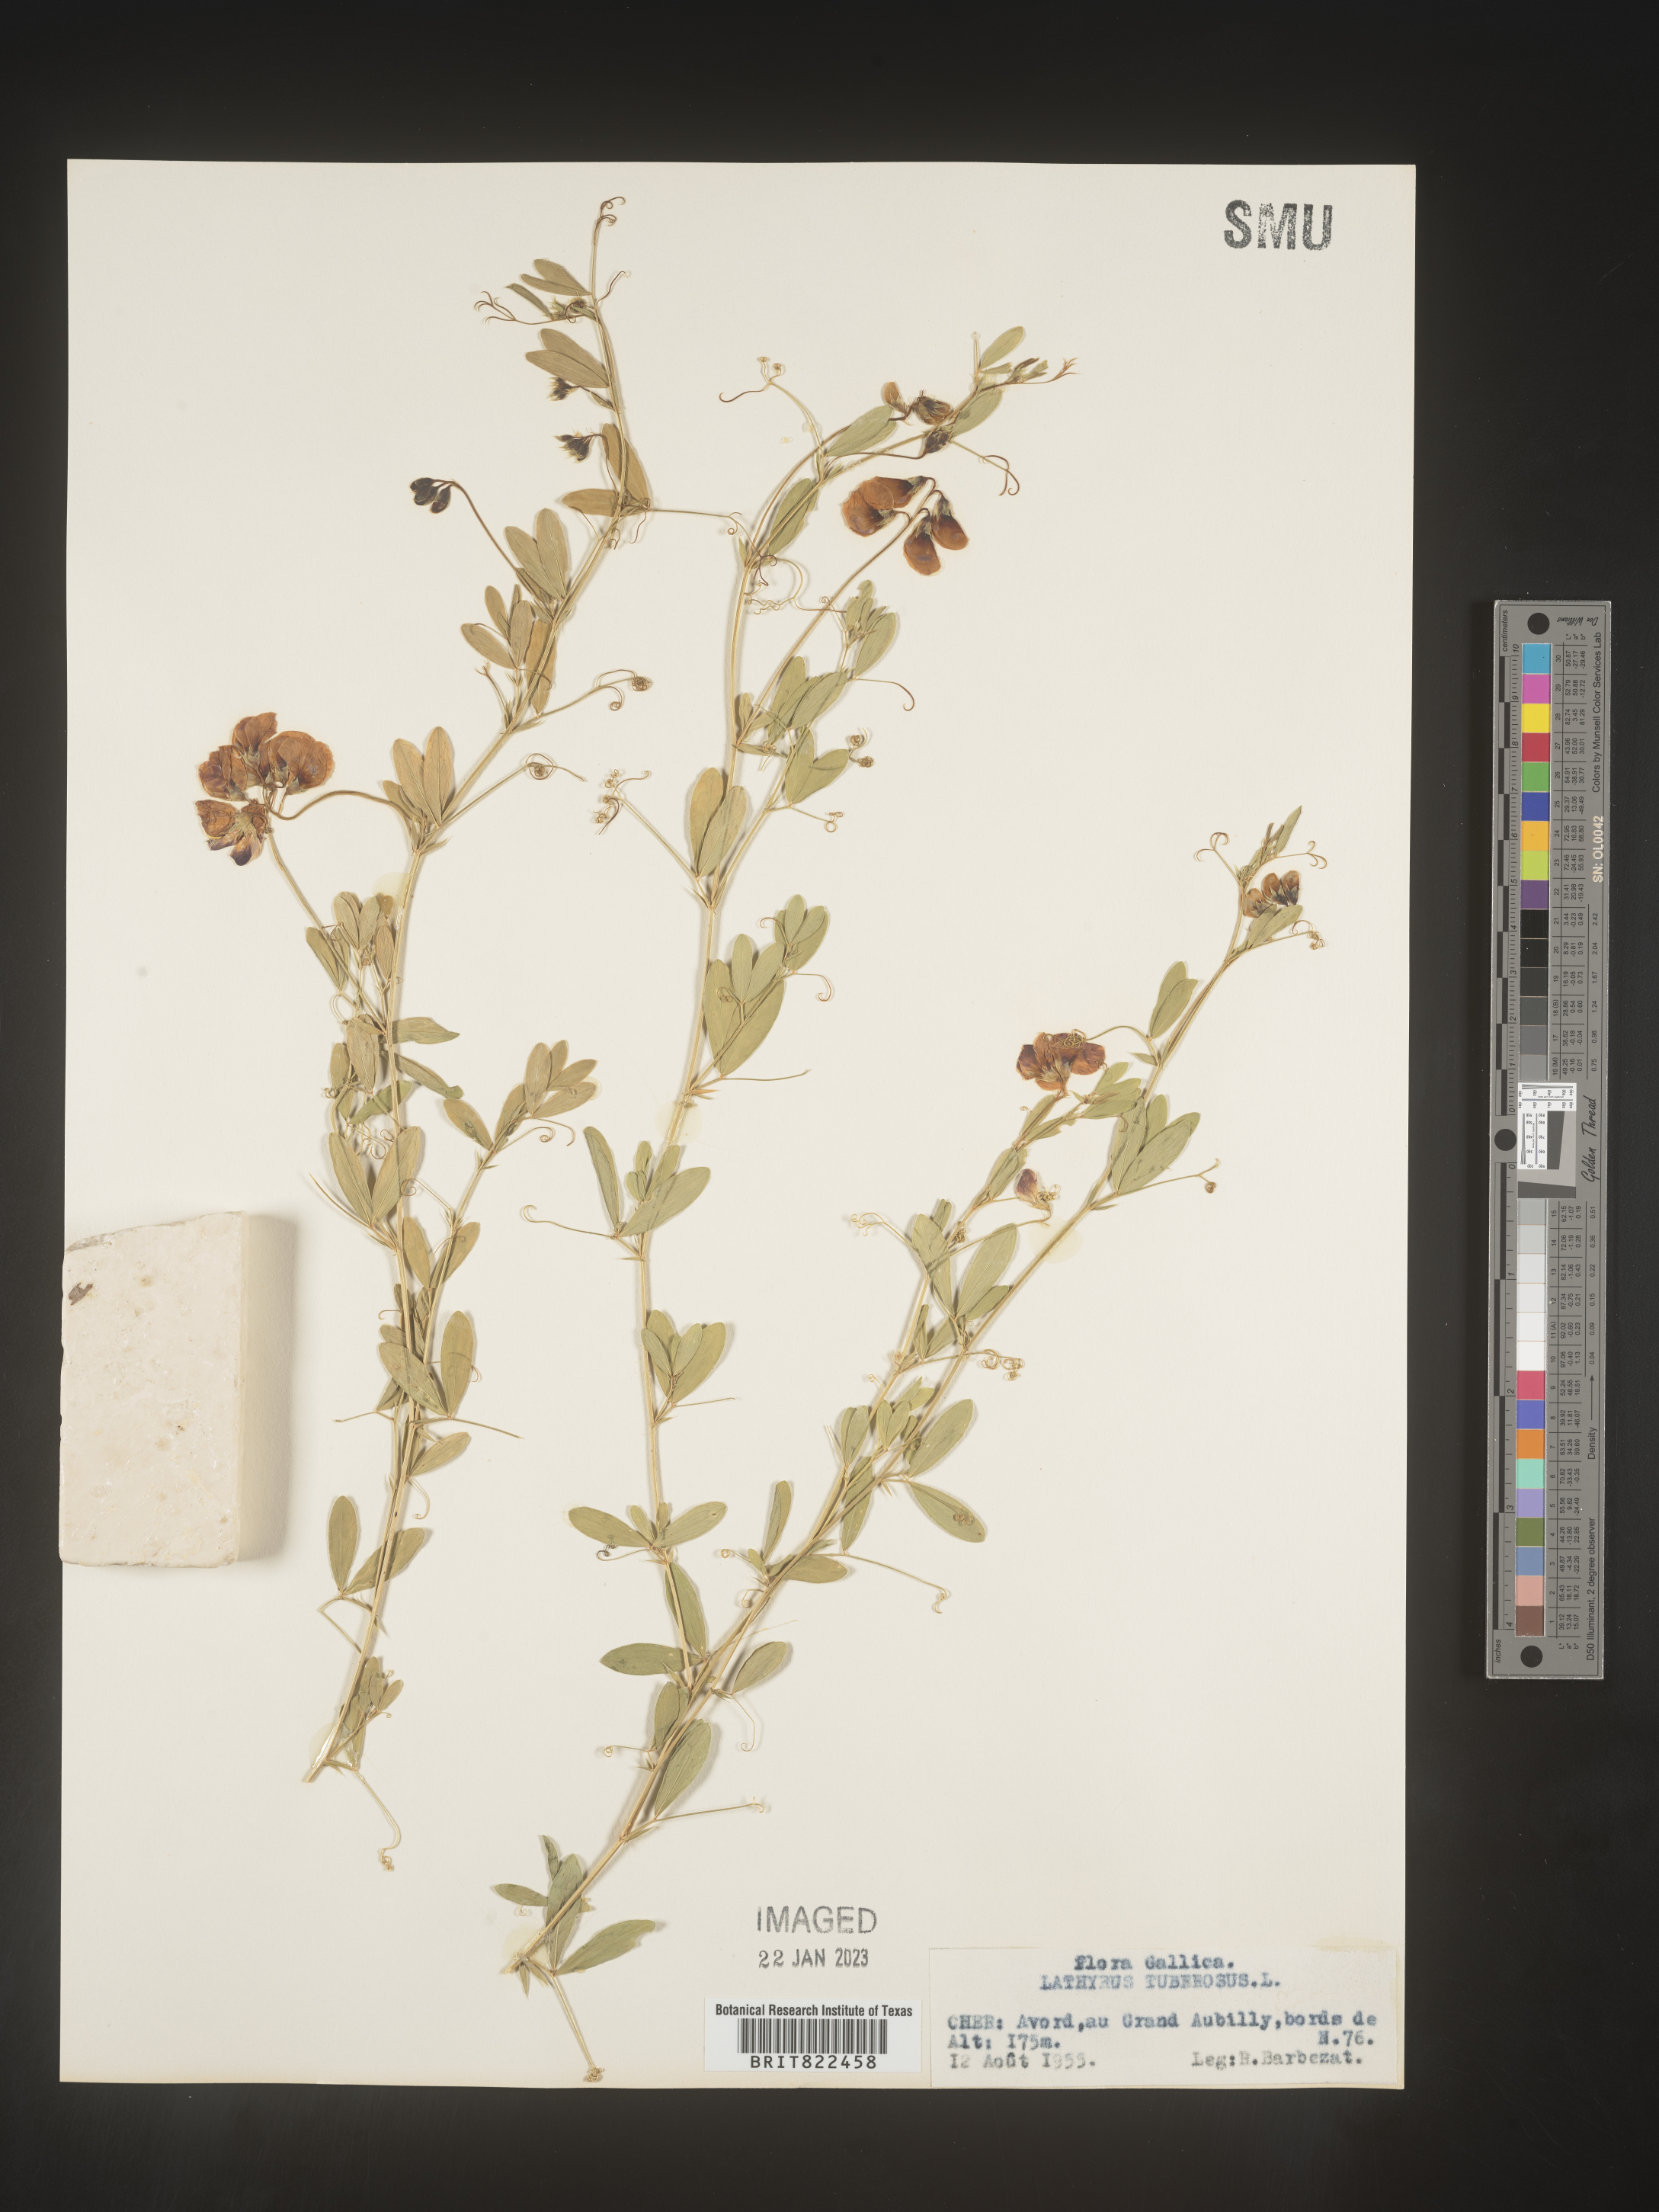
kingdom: Plantae
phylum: Tracheophyta
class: Magnoliopsida
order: Fabales
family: Fabaceae
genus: Lathyrus
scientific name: Lathyrus
